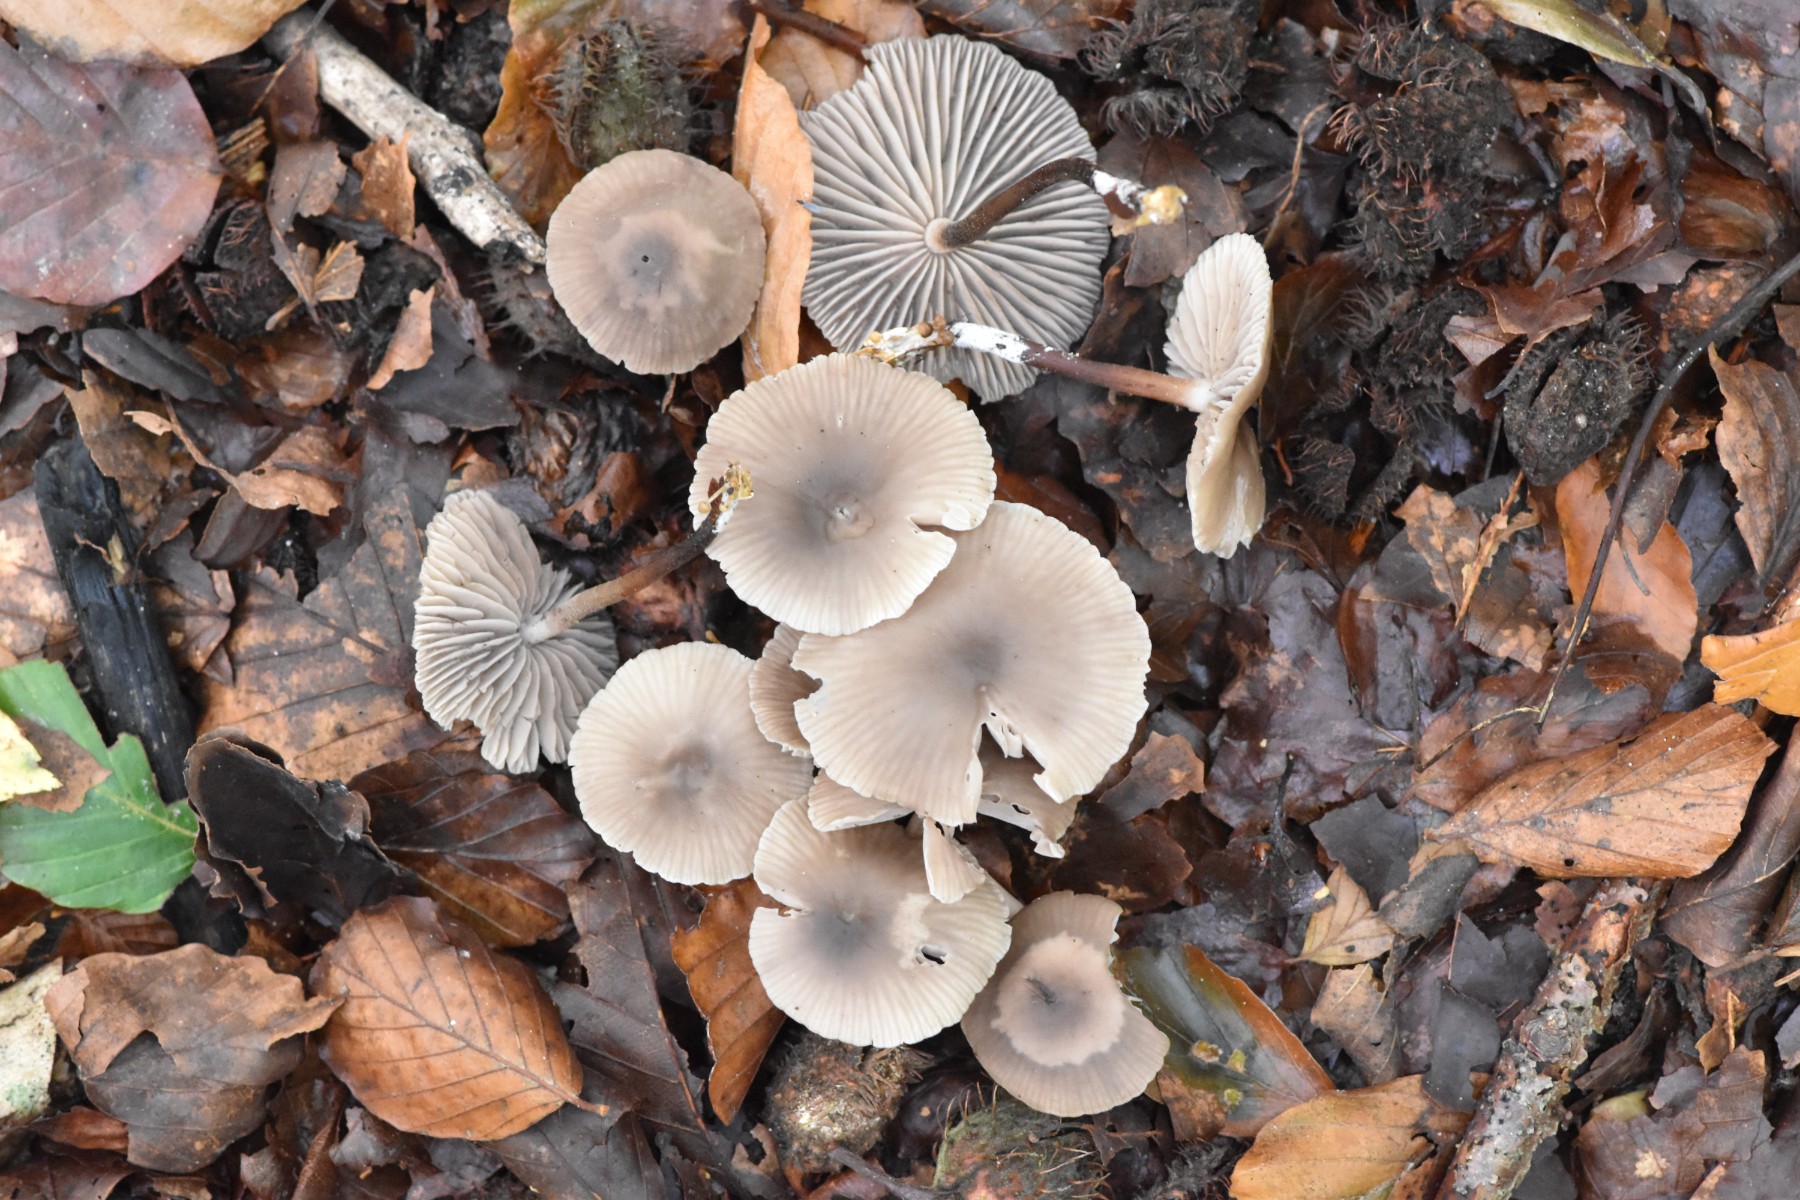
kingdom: Fungi
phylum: Basidiomycota
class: Agaricomycetes
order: Agaricales
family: Marasmiaceae
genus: Marasmius
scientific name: Marasmius wynneae
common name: hvælvet bruskhat
